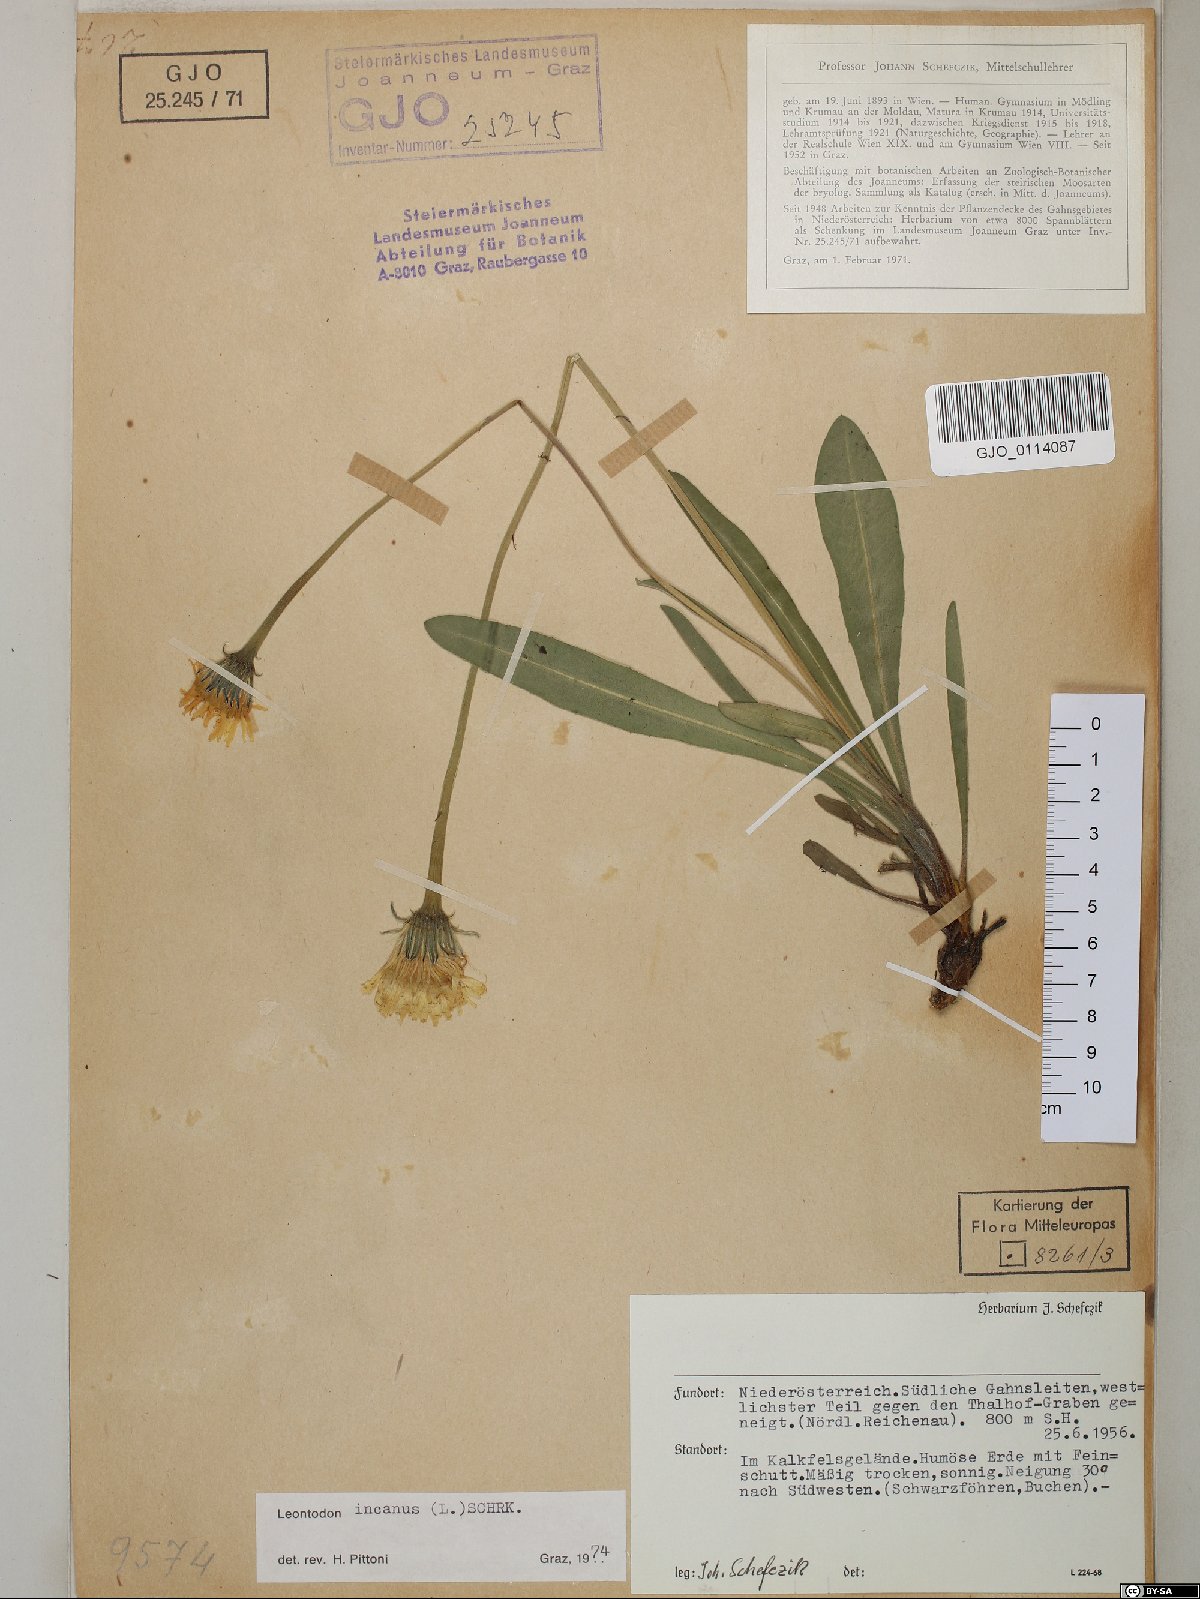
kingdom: Plantae
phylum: Tracheophyta
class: Magnoliopsida
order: Asterales
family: Asteraceae
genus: Leontodon
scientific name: Leontodon incanus
